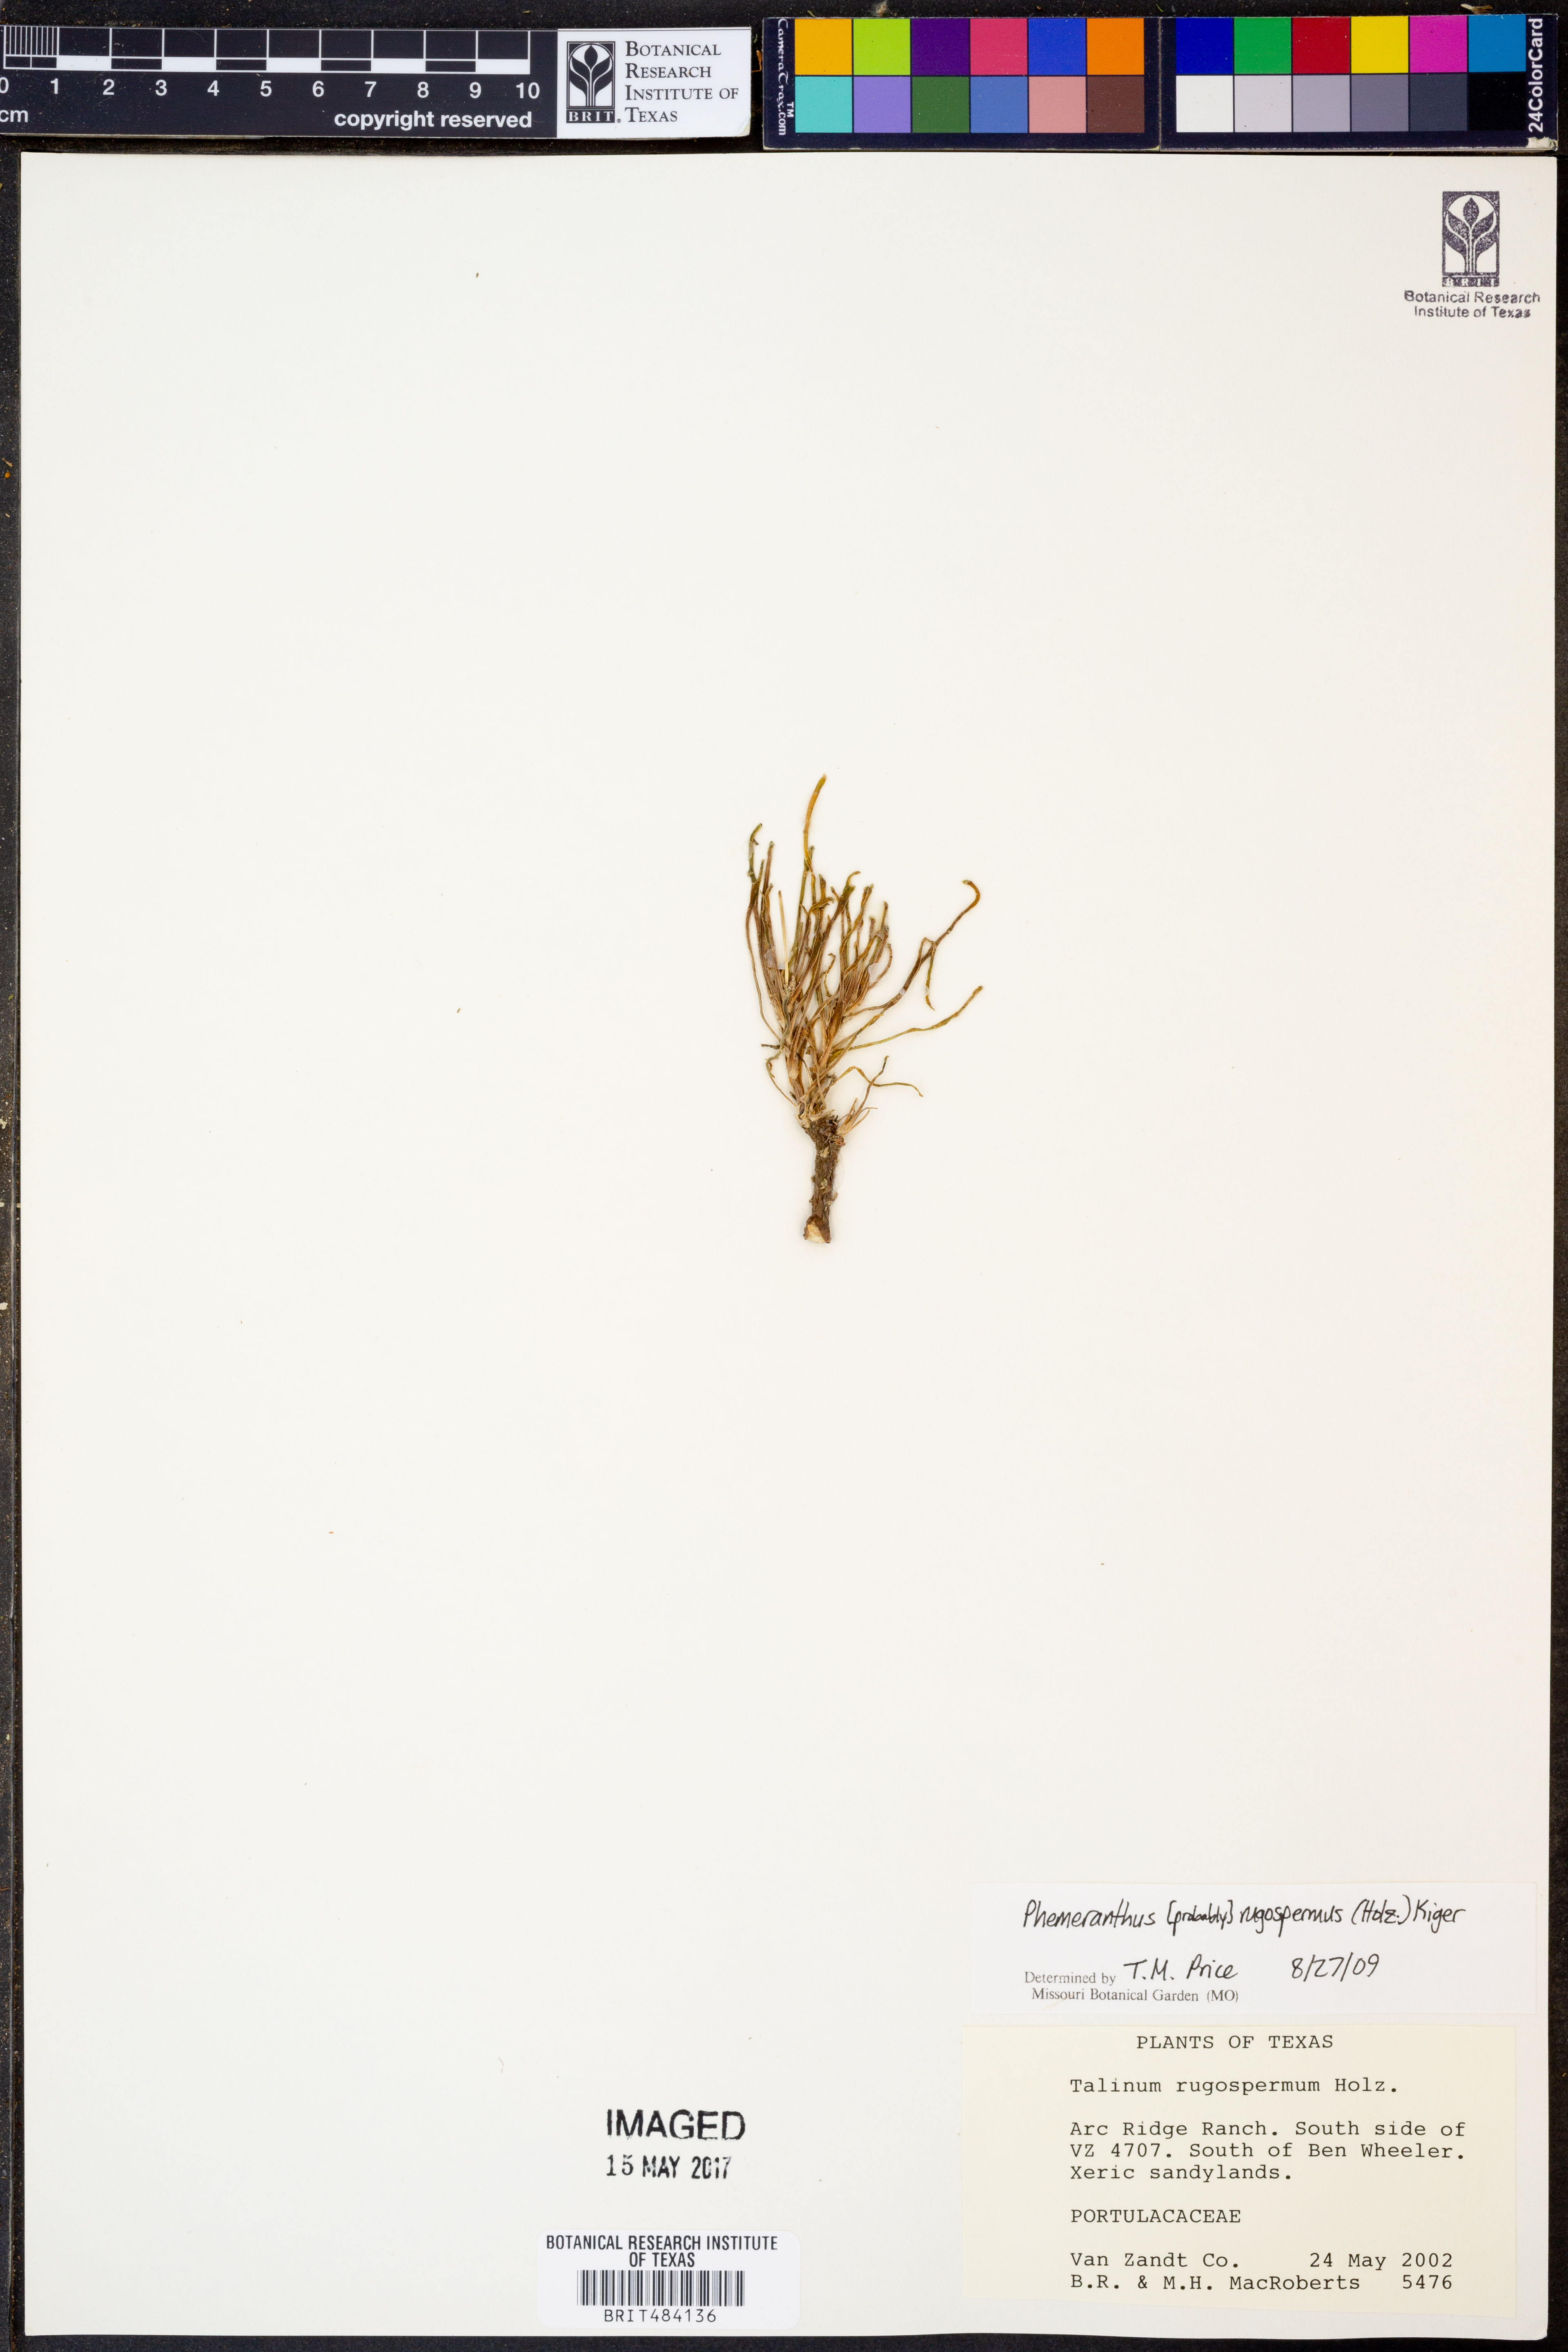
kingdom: Plantae
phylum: Tracheophyta
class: Magnoliopsida
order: Caryophyllales
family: Montiaceae
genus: Phemeranthus
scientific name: Phemeranthus rugospermus
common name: Prairie fameflower
